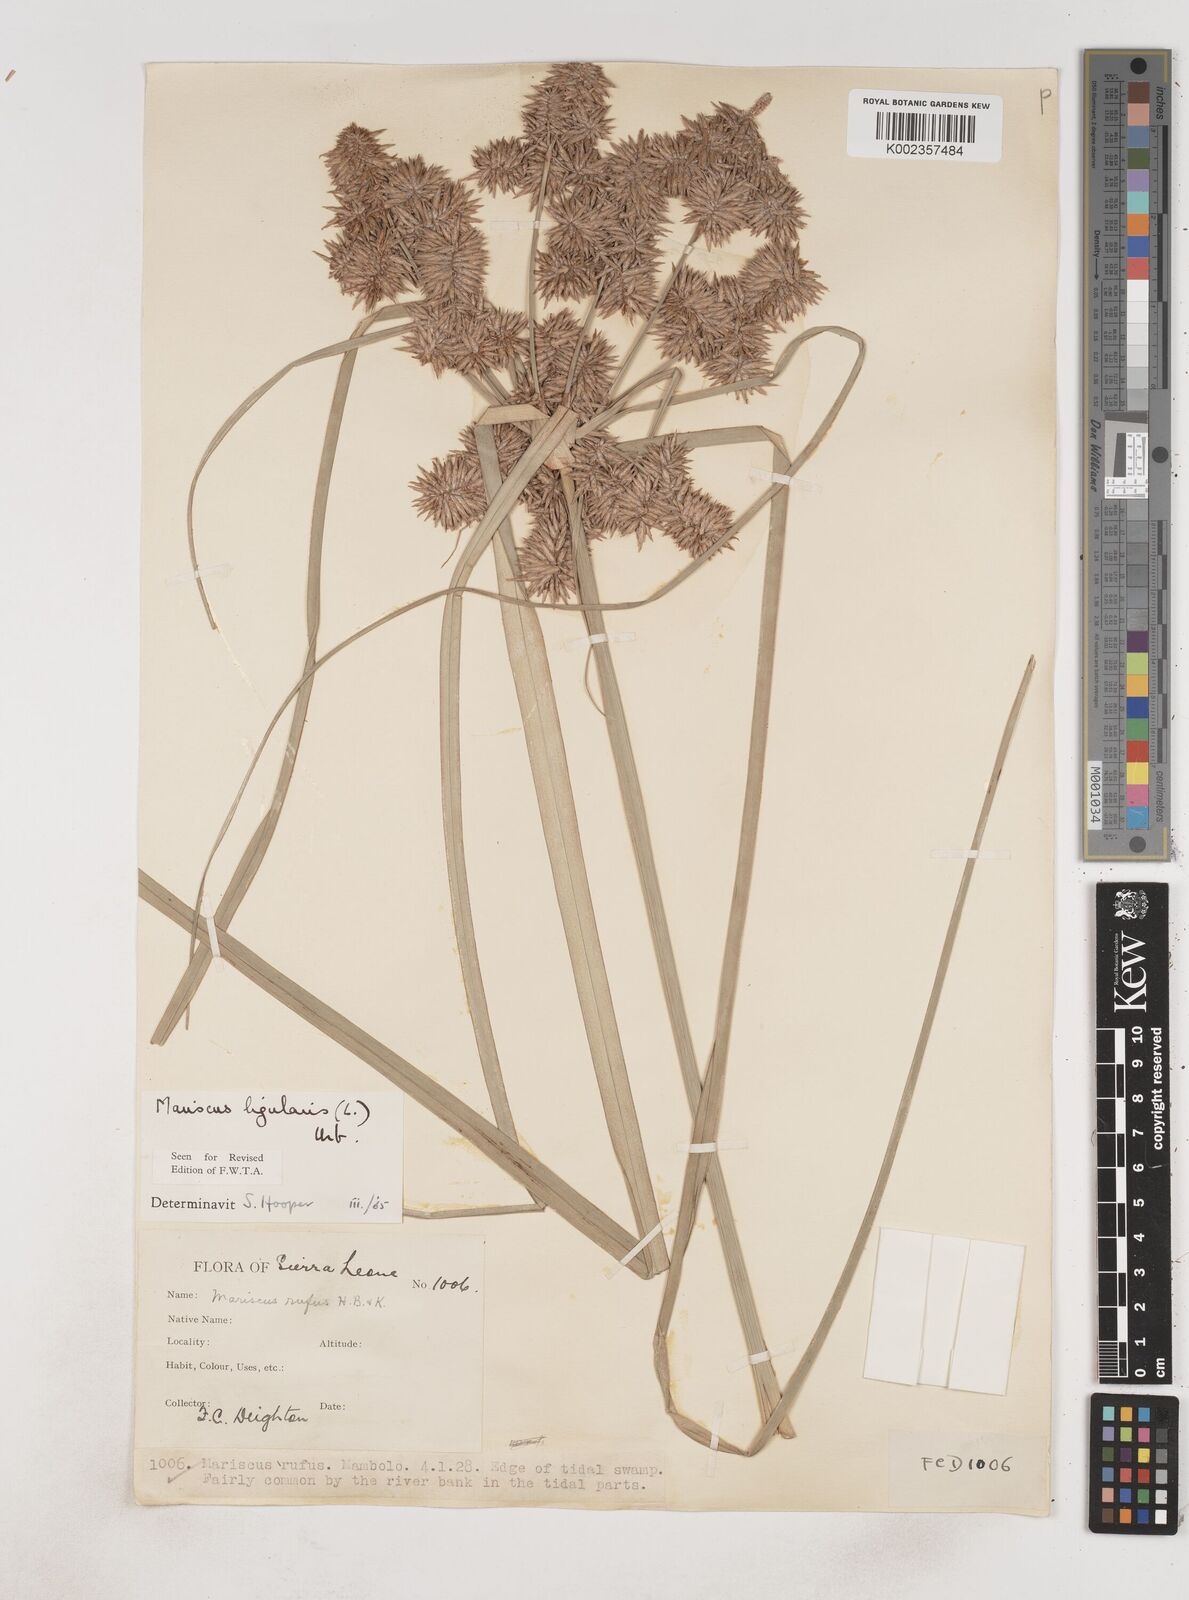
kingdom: Plantae
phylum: Tracheophyta
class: Liliopsida
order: Poales
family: Cyperaceae
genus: Cyperus
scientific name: Cyperus ligularis
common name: Swamp flat sedge
